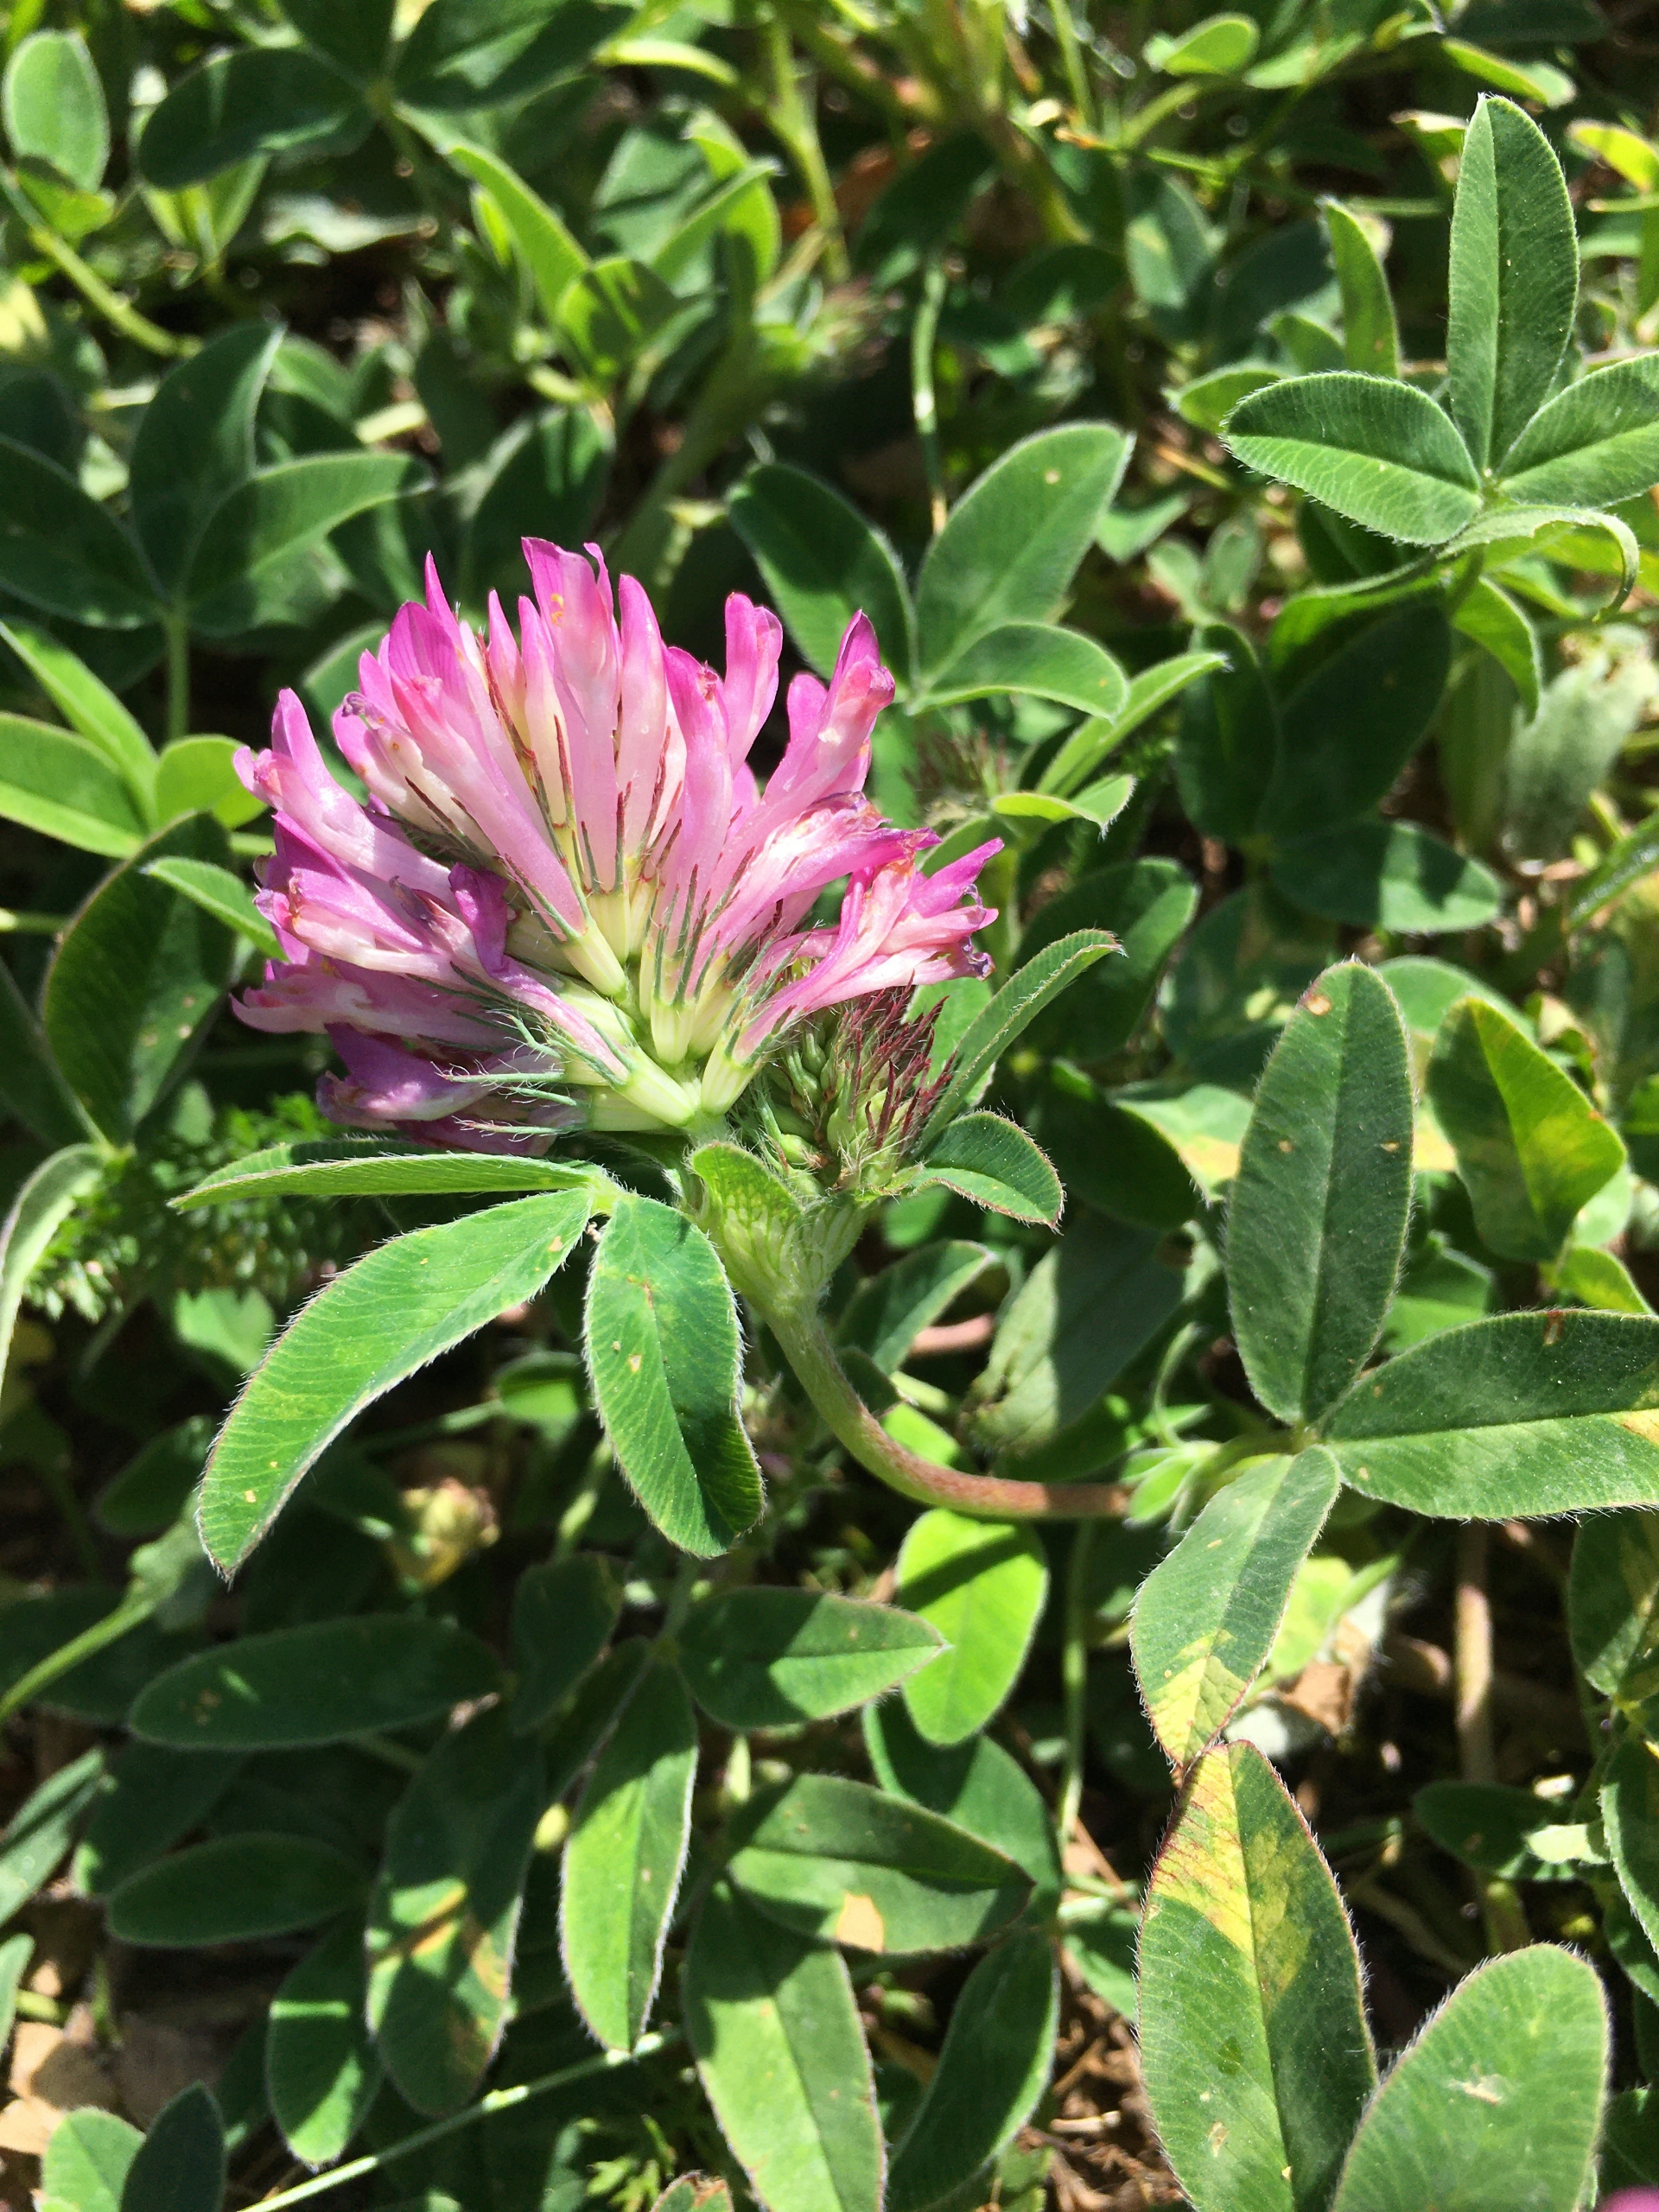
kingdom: Plantae
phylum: Tracheophyta
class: Magnoliopsida
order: Fabales
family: Fabaceae
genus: Trifolium
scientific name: Trifolium medium
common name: Bugtet kløver
